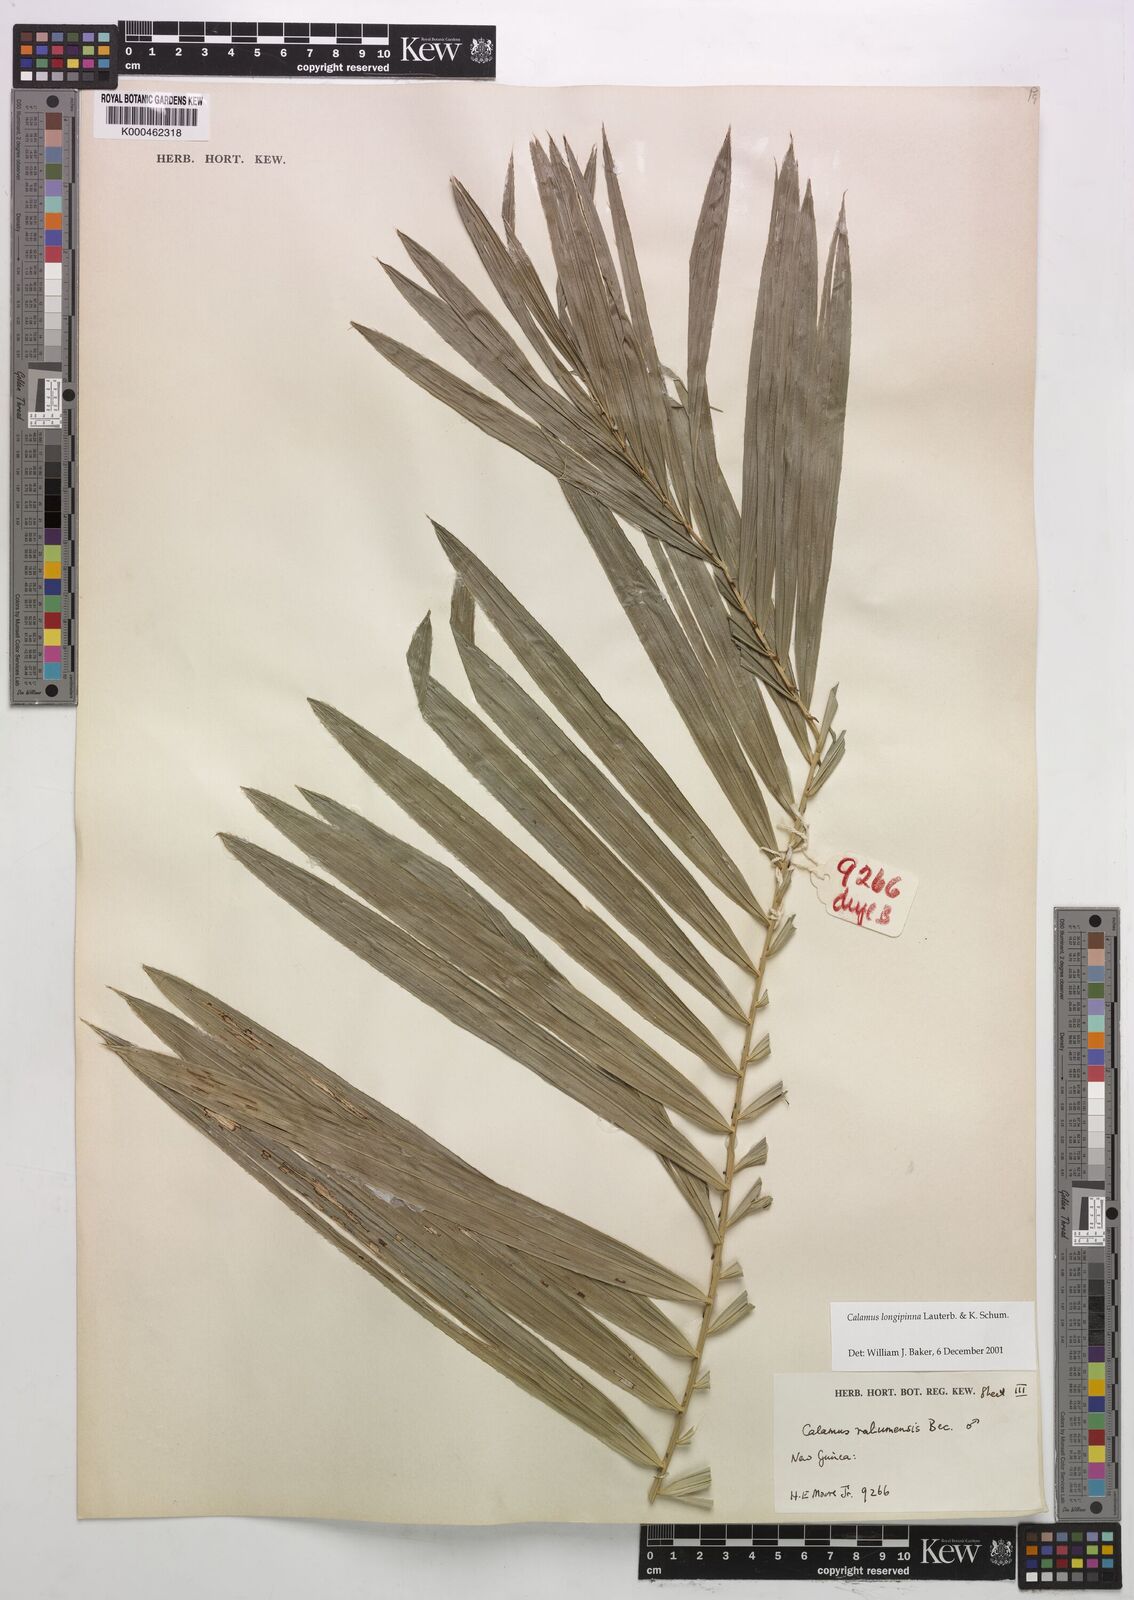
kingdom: Plantae
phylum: Tracheophyta
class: Liliopsida
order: Arecales
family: Arecaceae
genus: Calamus
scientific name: Calamus longipinna
